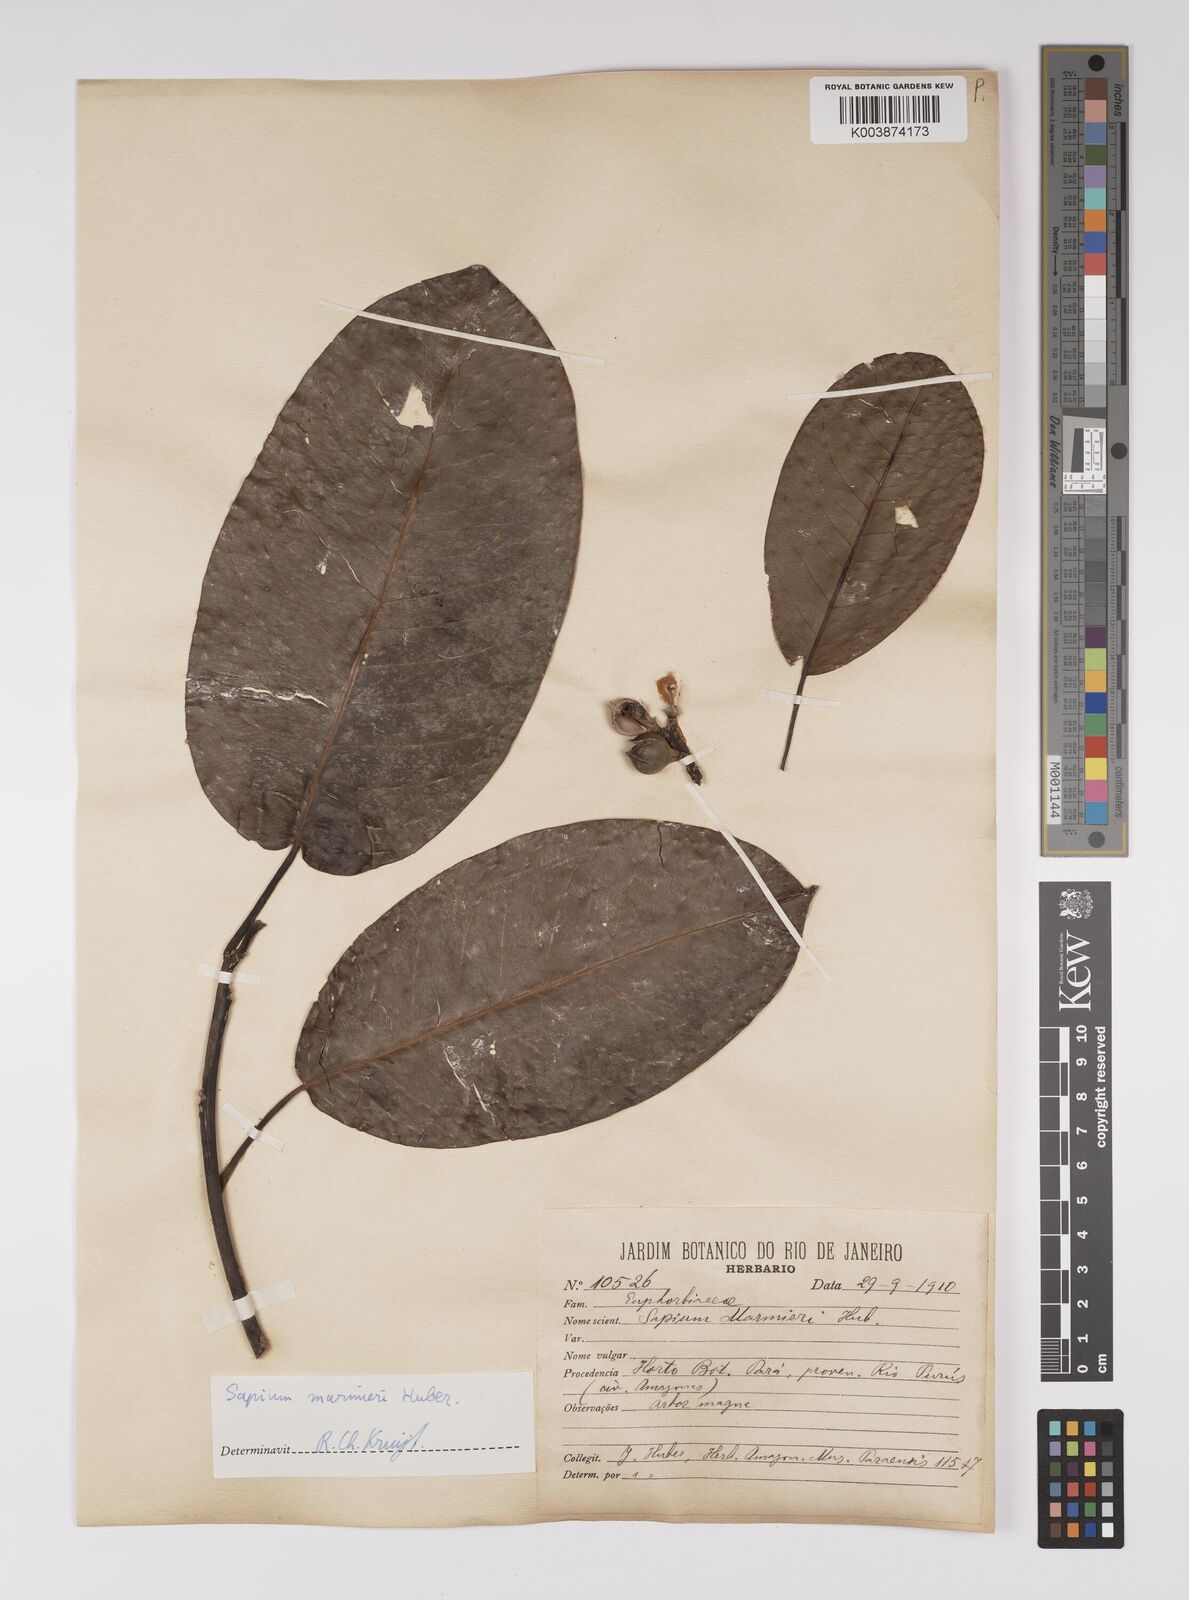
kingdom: Plantae
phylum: Tracheophyta
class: Magnoliopsida
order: Malpighiales
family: Euphorbiaceae
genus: Sapium
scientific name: Sapium marmieri
